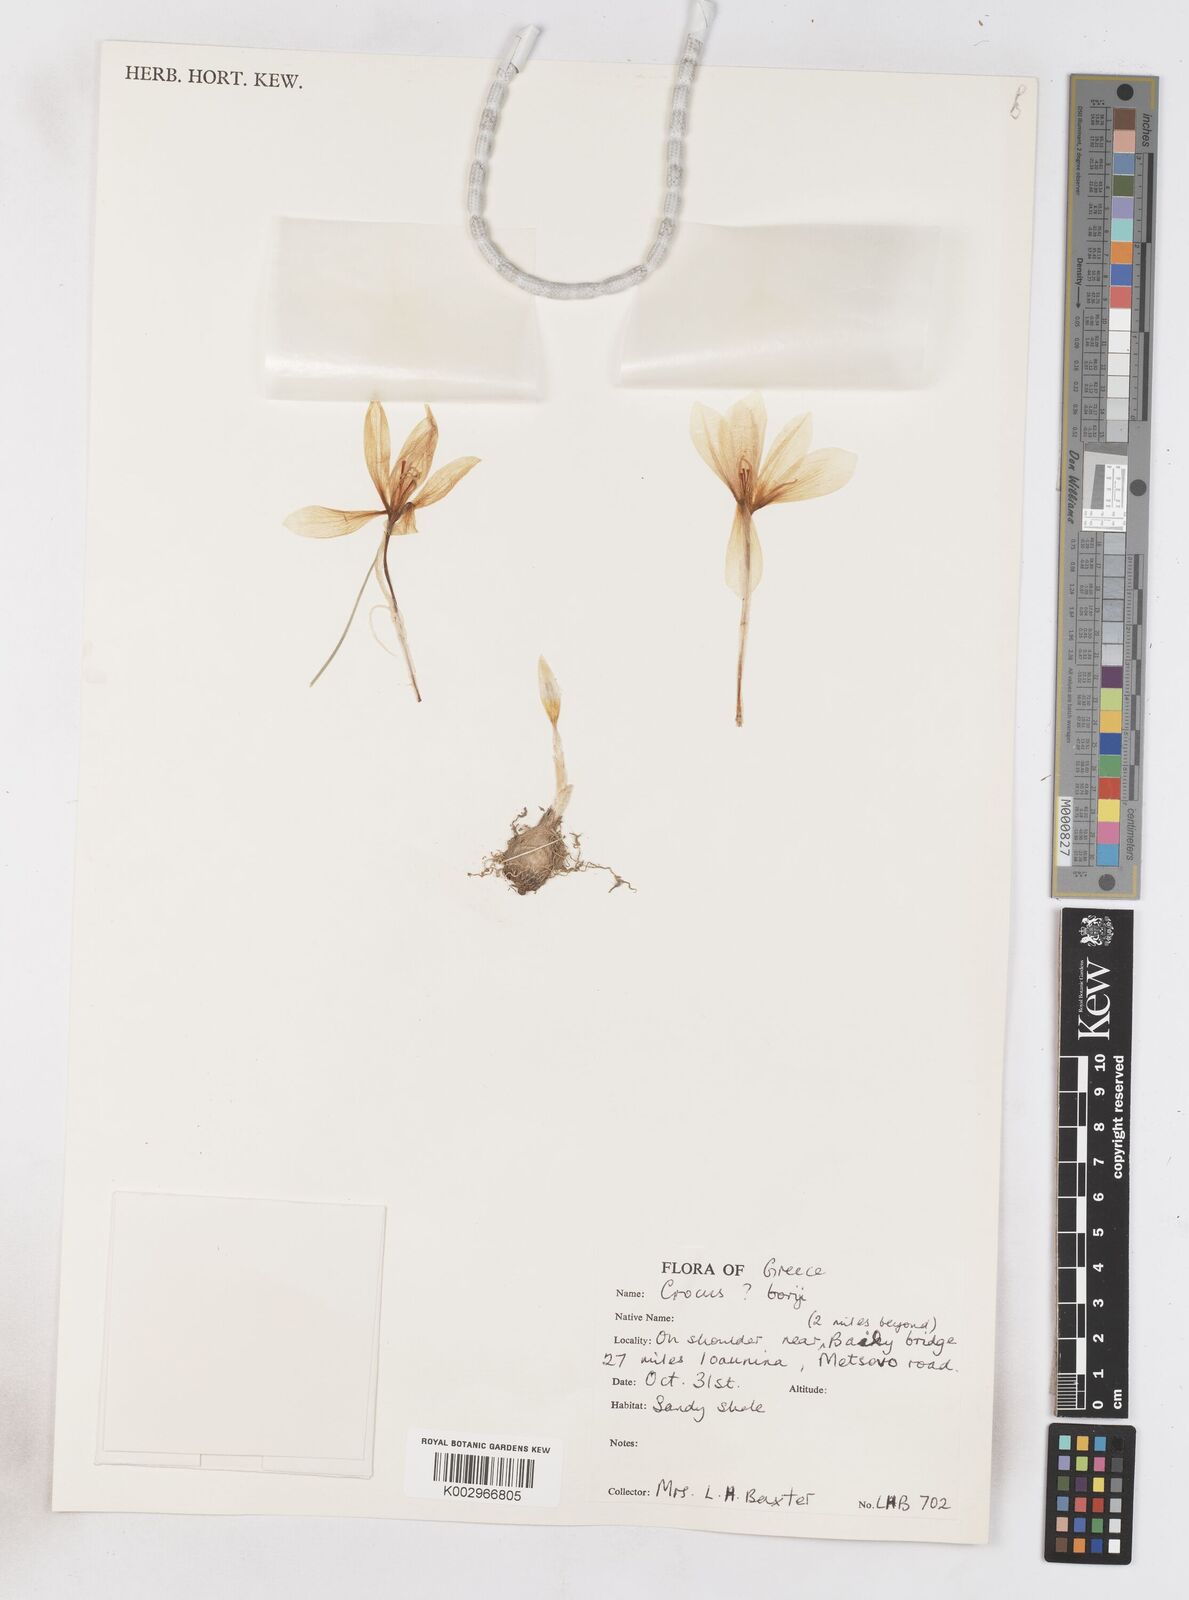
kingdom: Plantae
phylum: Tracheophyta
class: Liliopsida
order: Asparagales
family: Iridaceae
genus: Crocus
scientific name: Crocus hadriaticus
